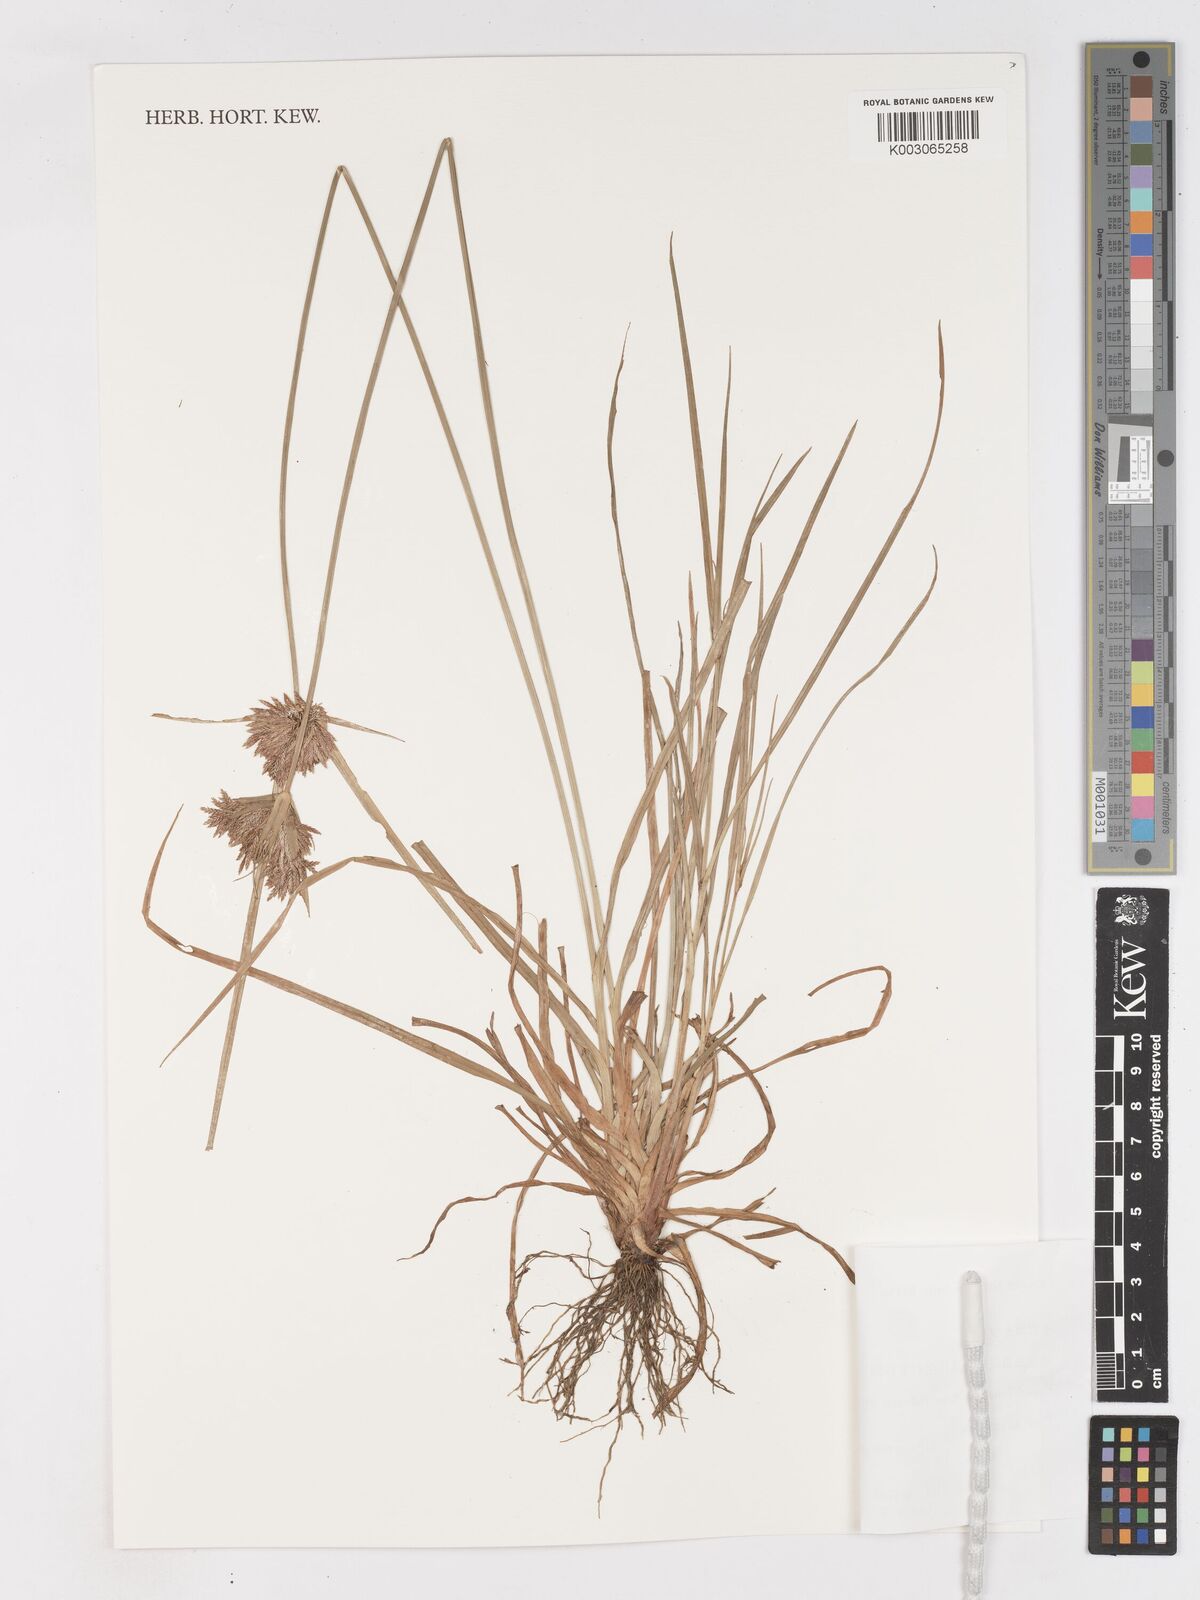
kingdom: Plantae
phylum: Tracheophyta
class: Liliopsida
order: Poales
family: Cyperaceae
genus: Cyperus
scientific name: Cyperus polystachyos
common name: Bunchy flat sedge
